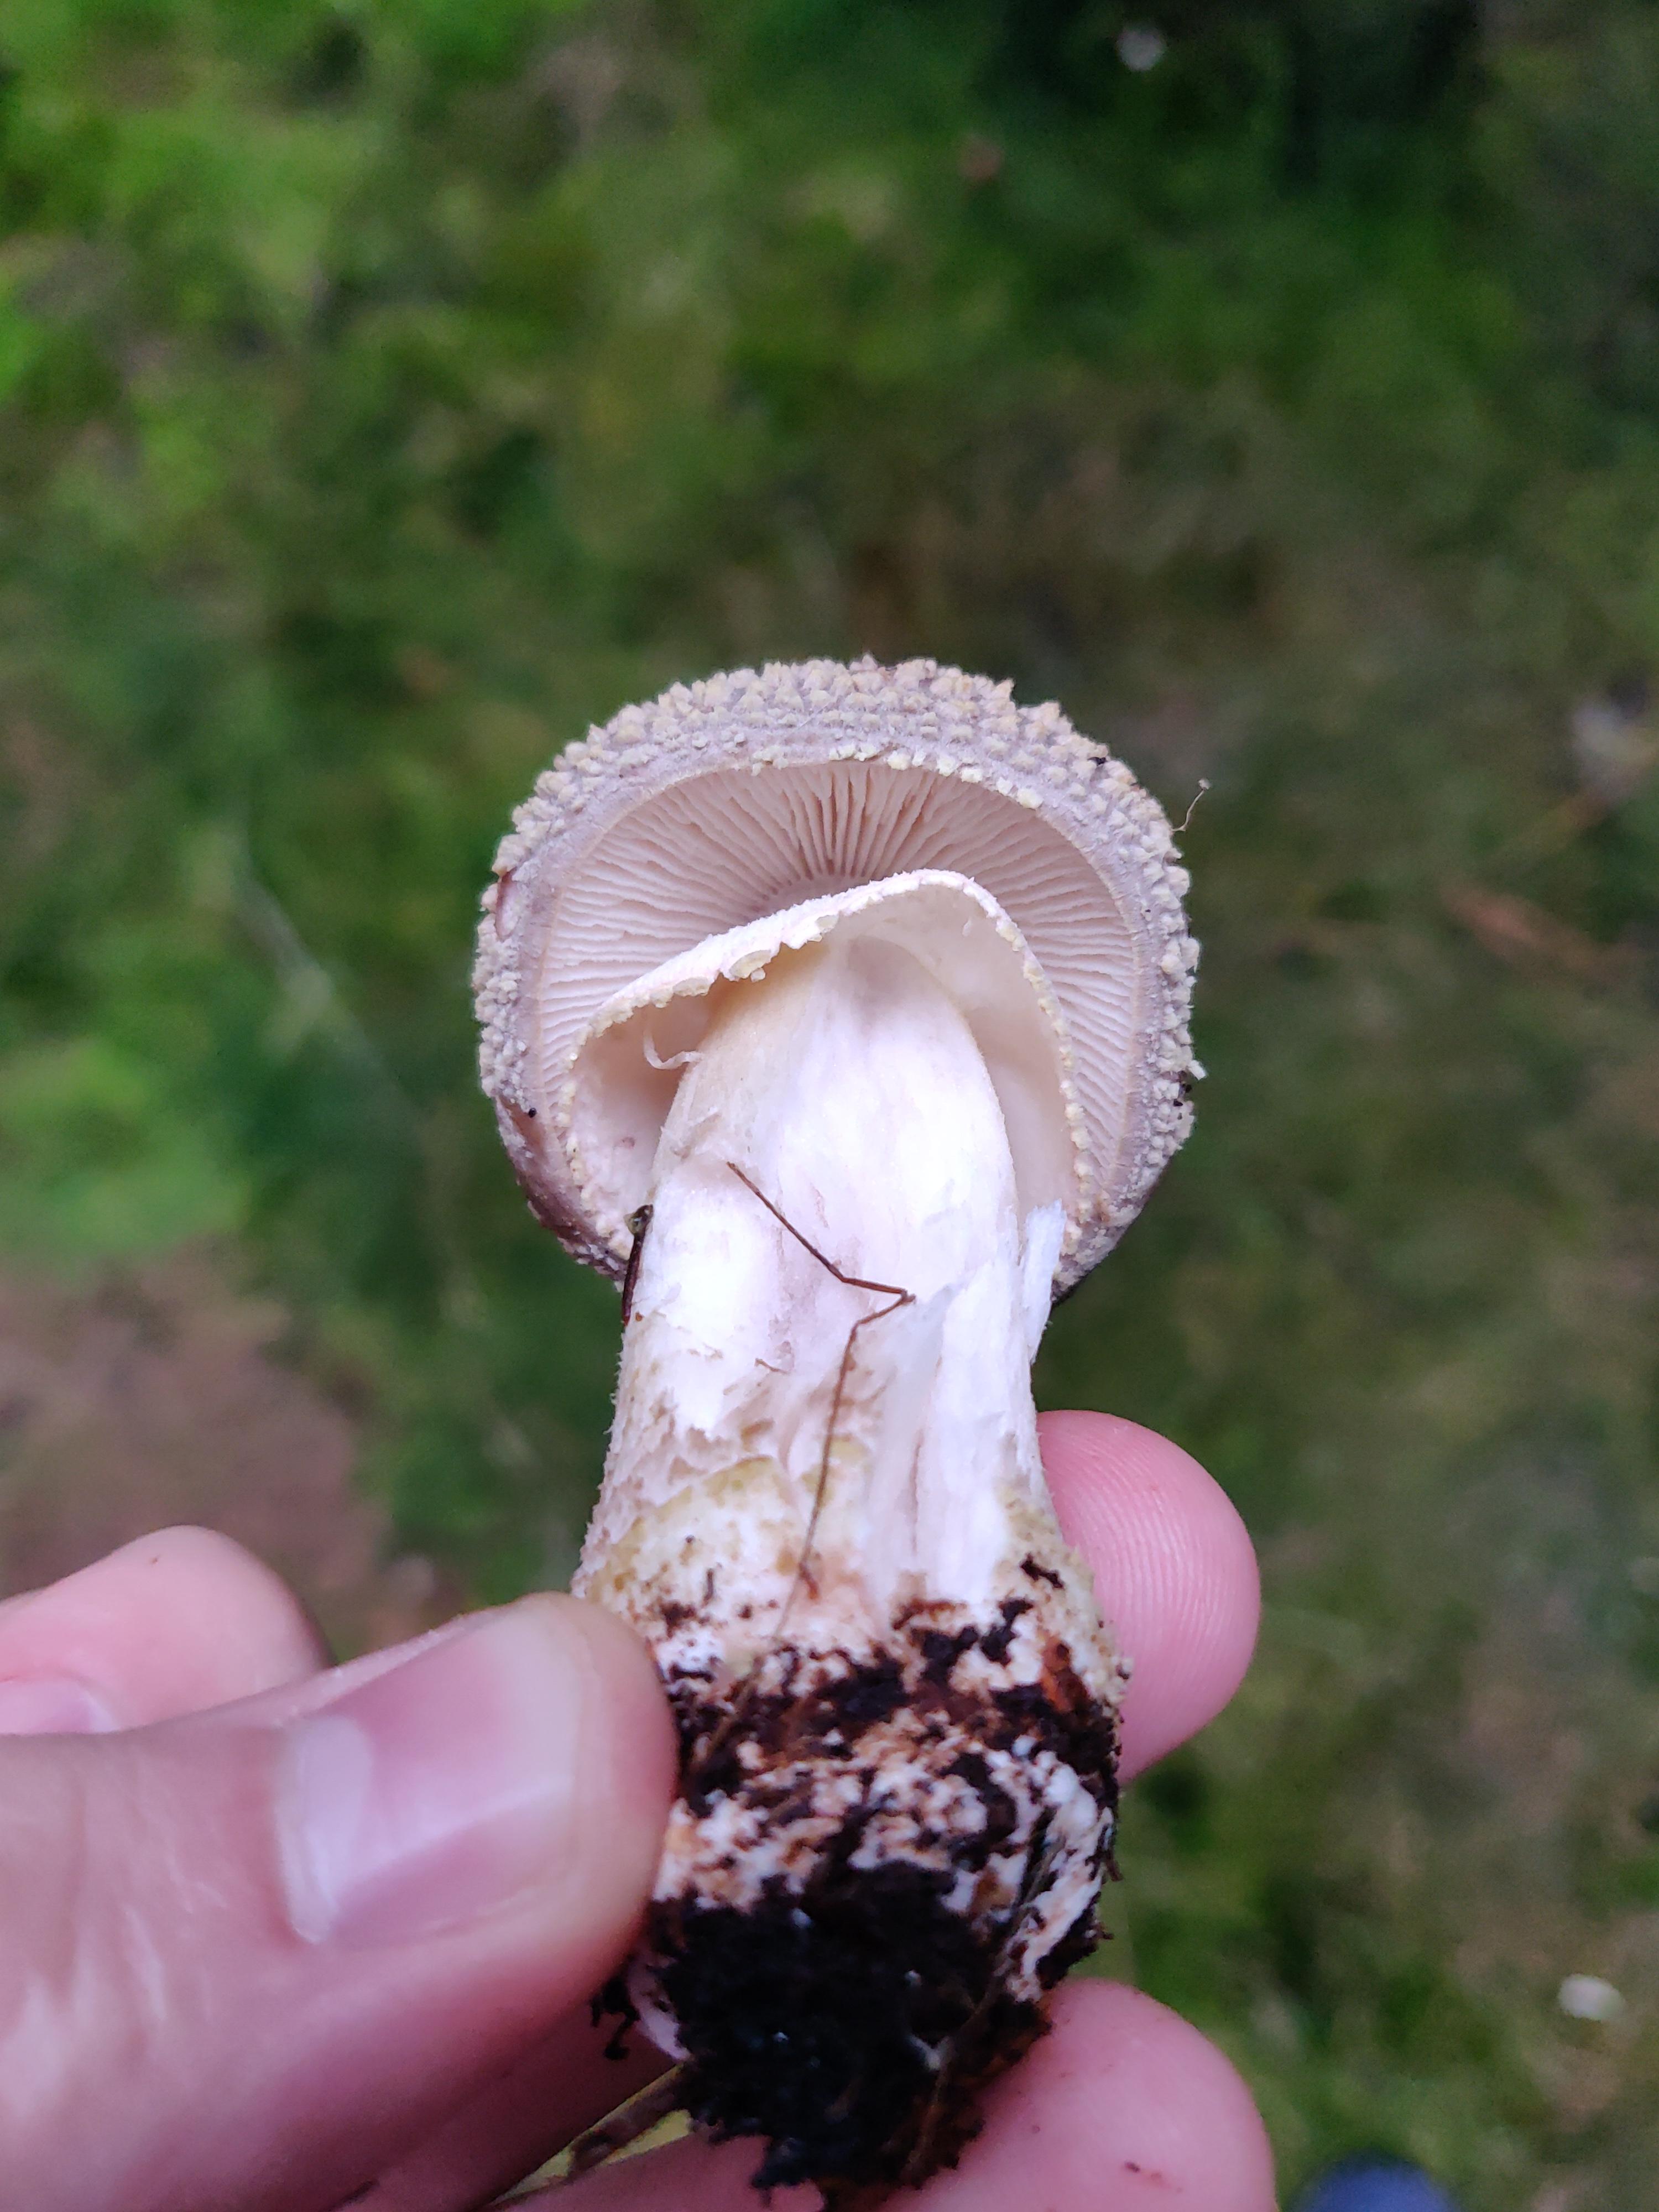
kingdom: Fungi
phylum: Basidiomycota
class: Agaricomycetes
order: Agaricales
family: Amanitaceae
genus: Amanita
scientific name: Amanita rubescens
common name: rødmende fluesvamp
